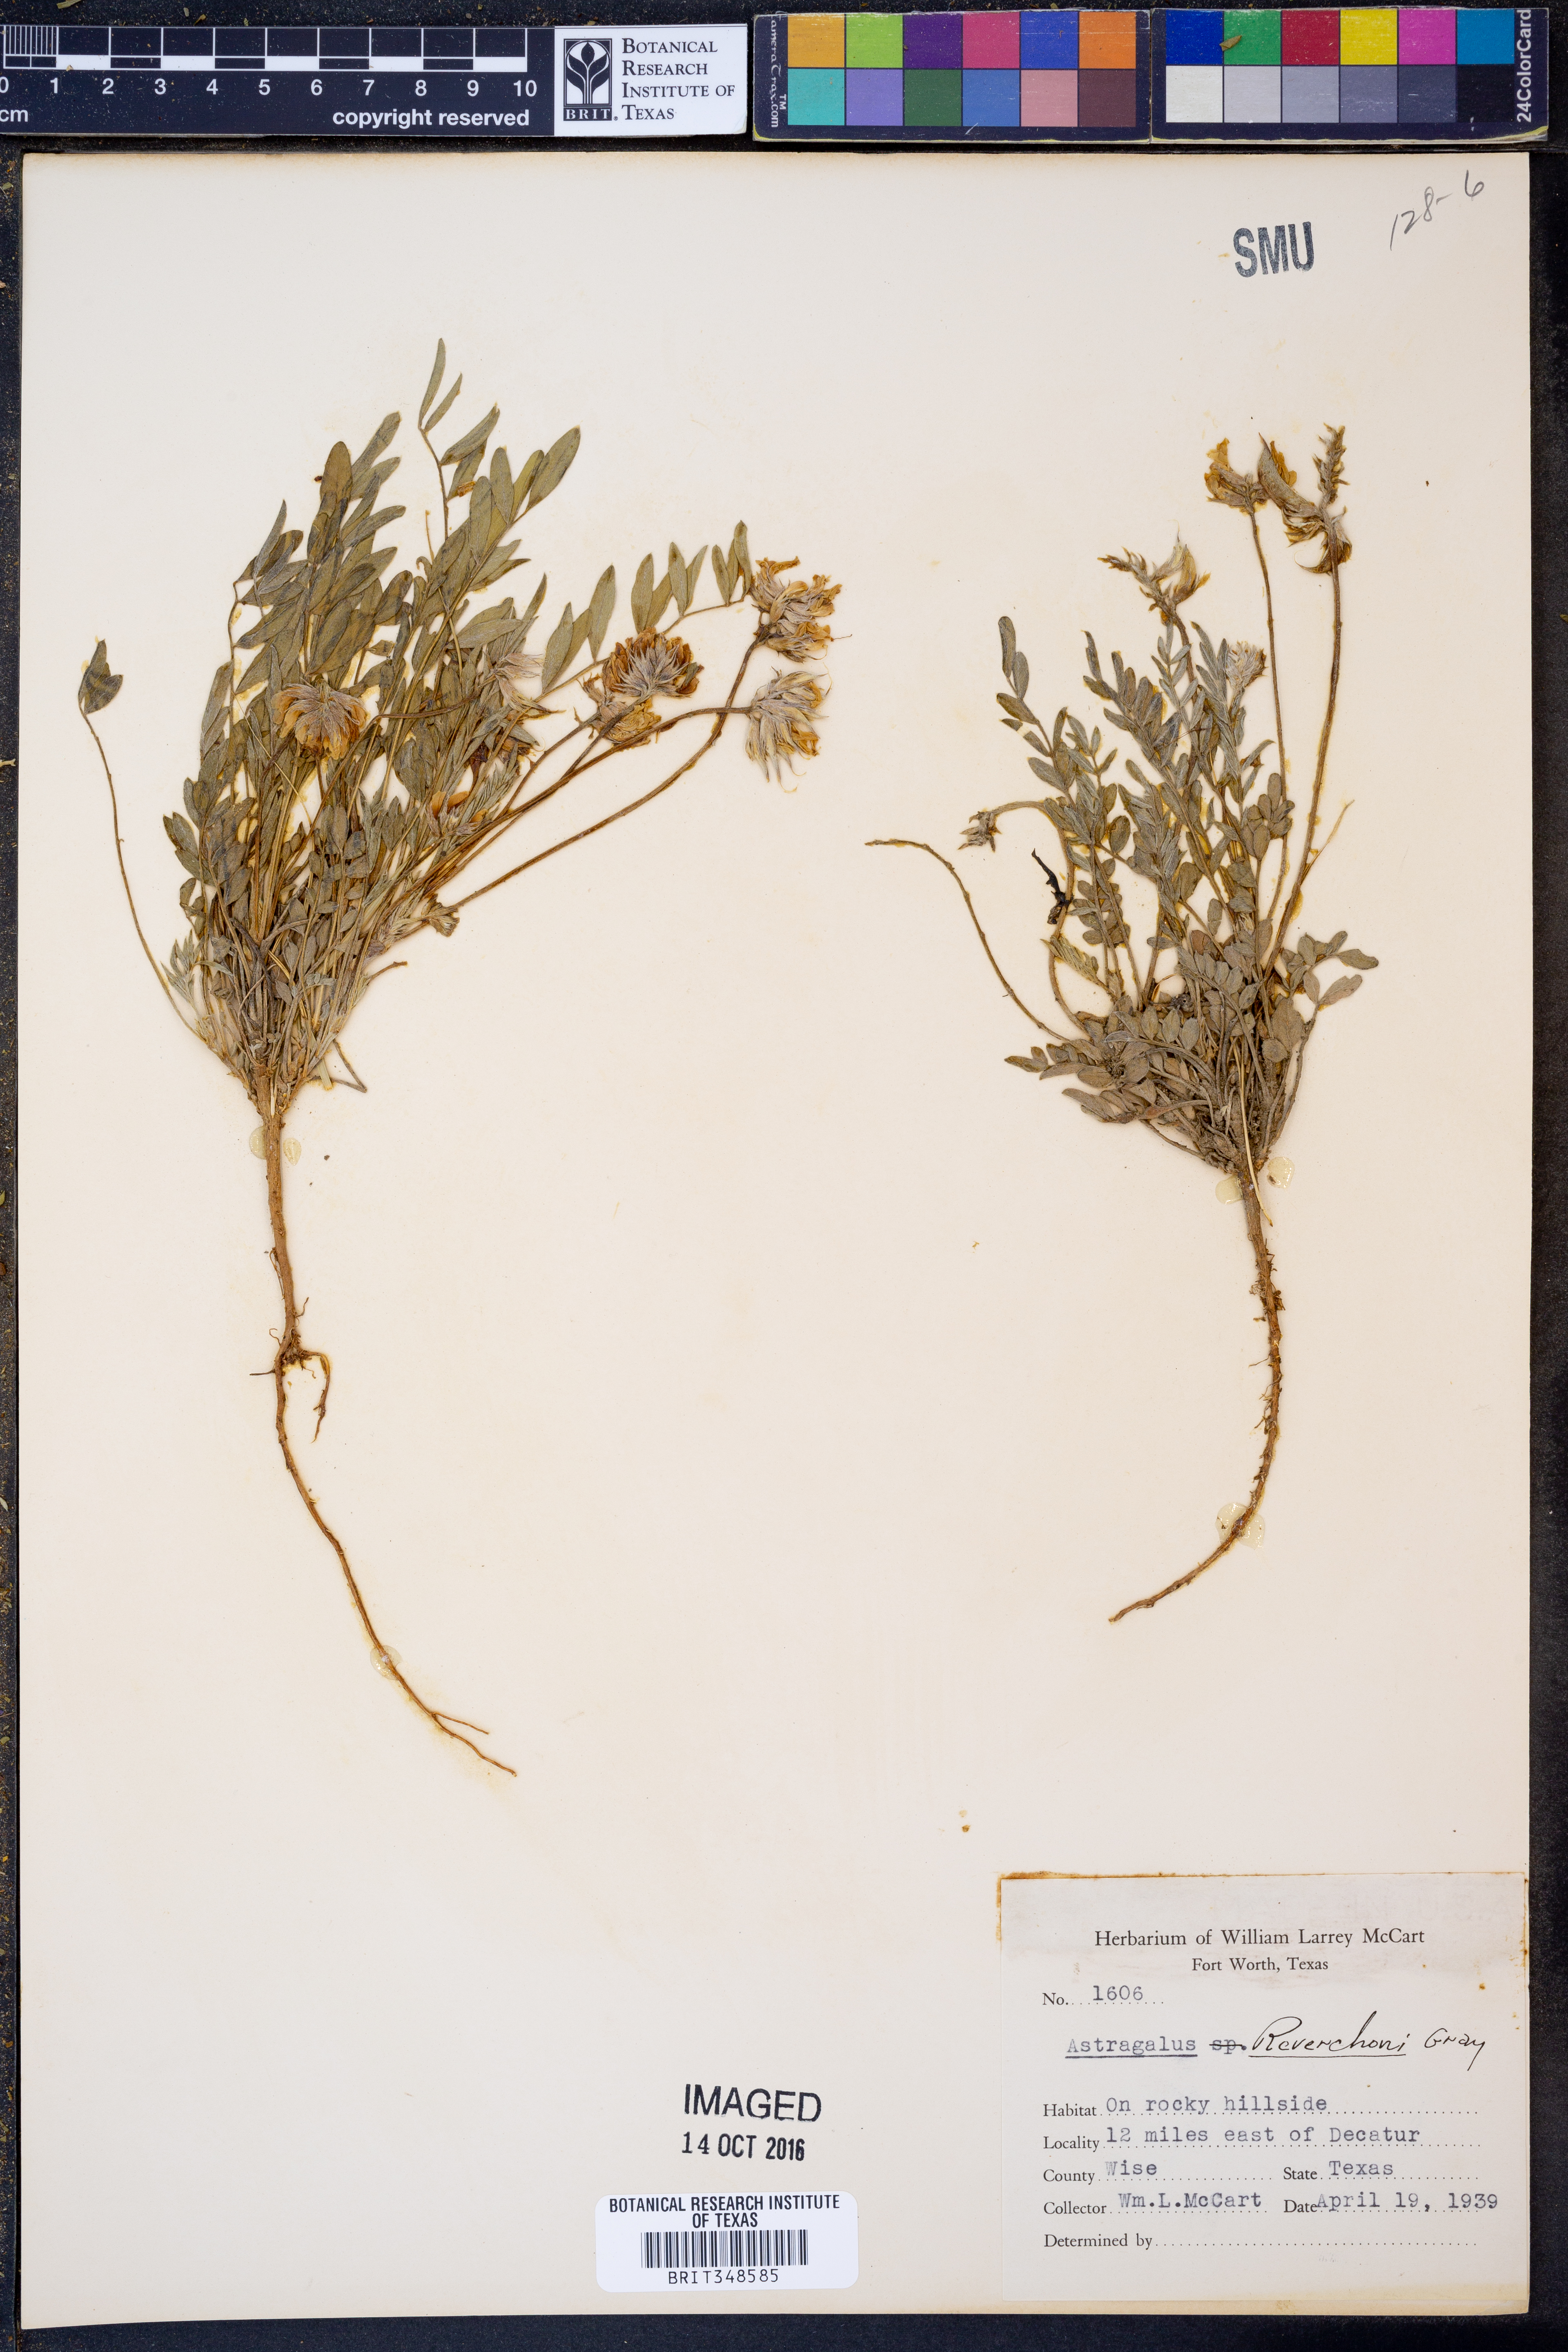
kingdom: Plantae
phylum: Tracheophyta
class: Magnoliopsida
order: Fabales
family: Fabaceae
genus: Astragalus
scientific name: Astragalus lotiflorus
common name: Lotus milk-vetch
